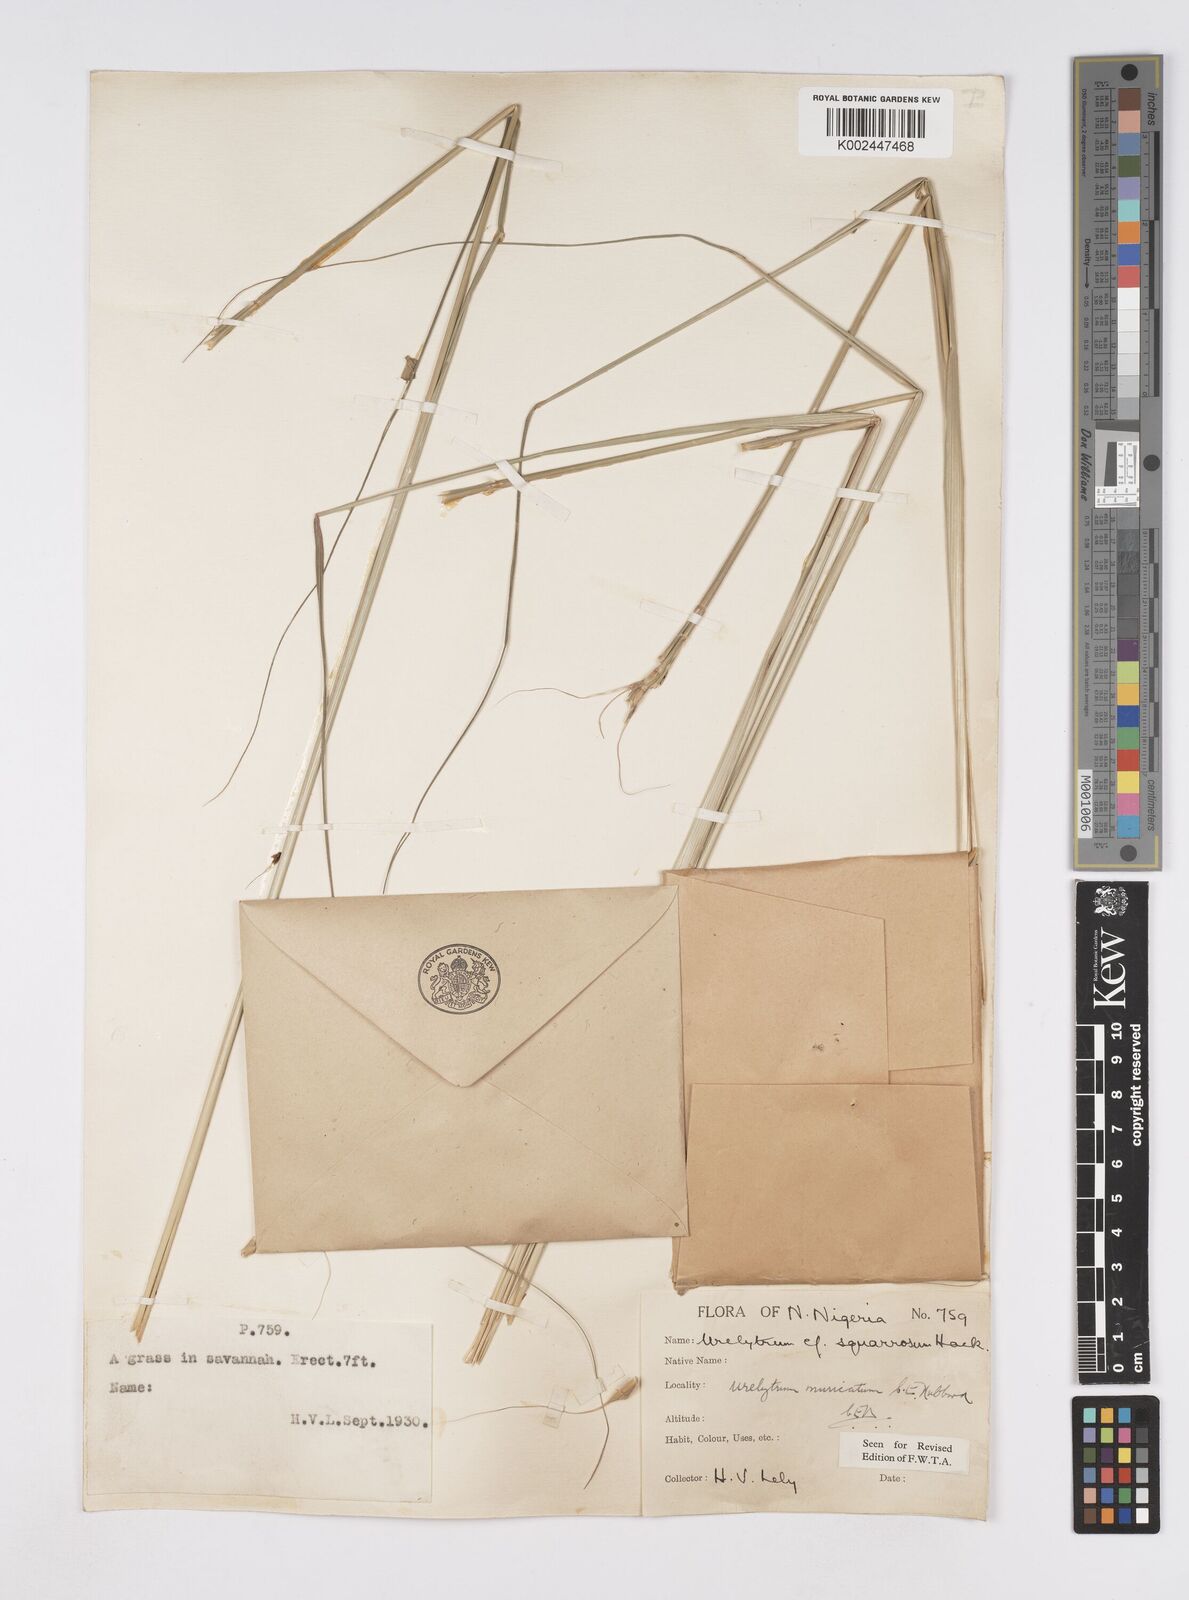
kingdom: Plantae
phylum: Tracheophyta
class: Liliopsida
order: Poales
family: Poaceae
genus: Urelytrum
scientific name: Urelytrum muricatum
